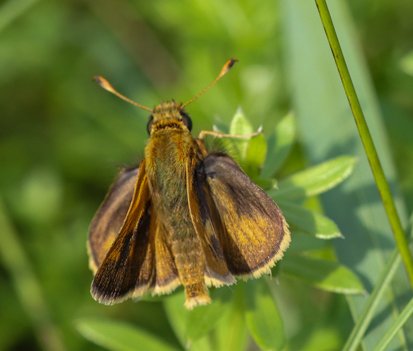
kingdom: Animalia
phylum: Arthropoda
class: Insecta
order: Lepidoptera
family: Hesperiidae
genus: Polites
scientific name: Polites
